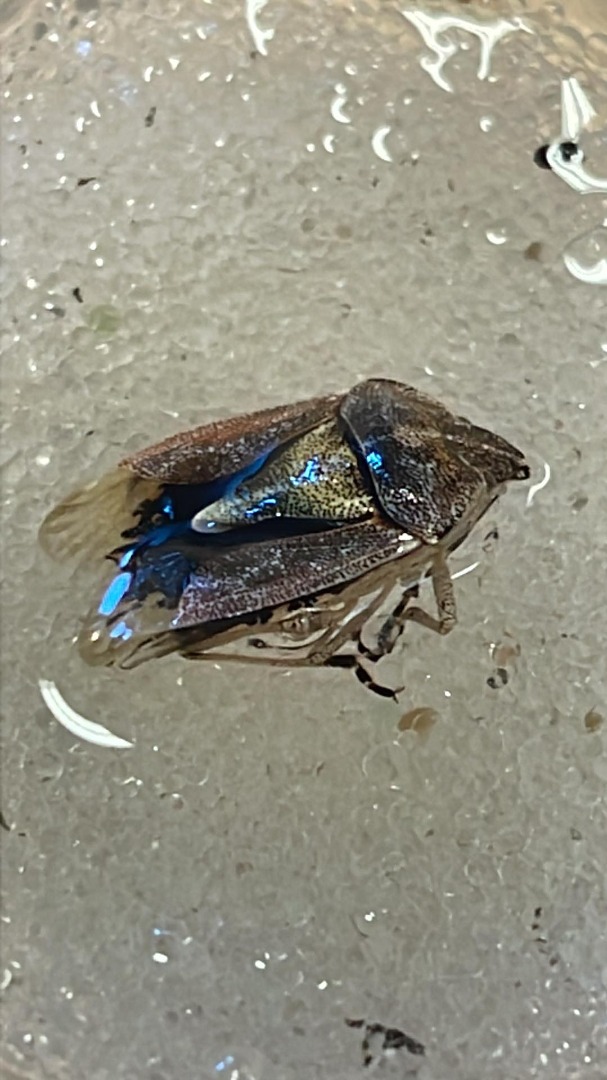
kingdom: Animalia
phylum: Arthropoda
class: Insecta
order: Hemiptera
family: Pentatomidae
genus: Dolycoris
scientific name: Dolycoris baccarum
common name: Almindelig bærtæge
